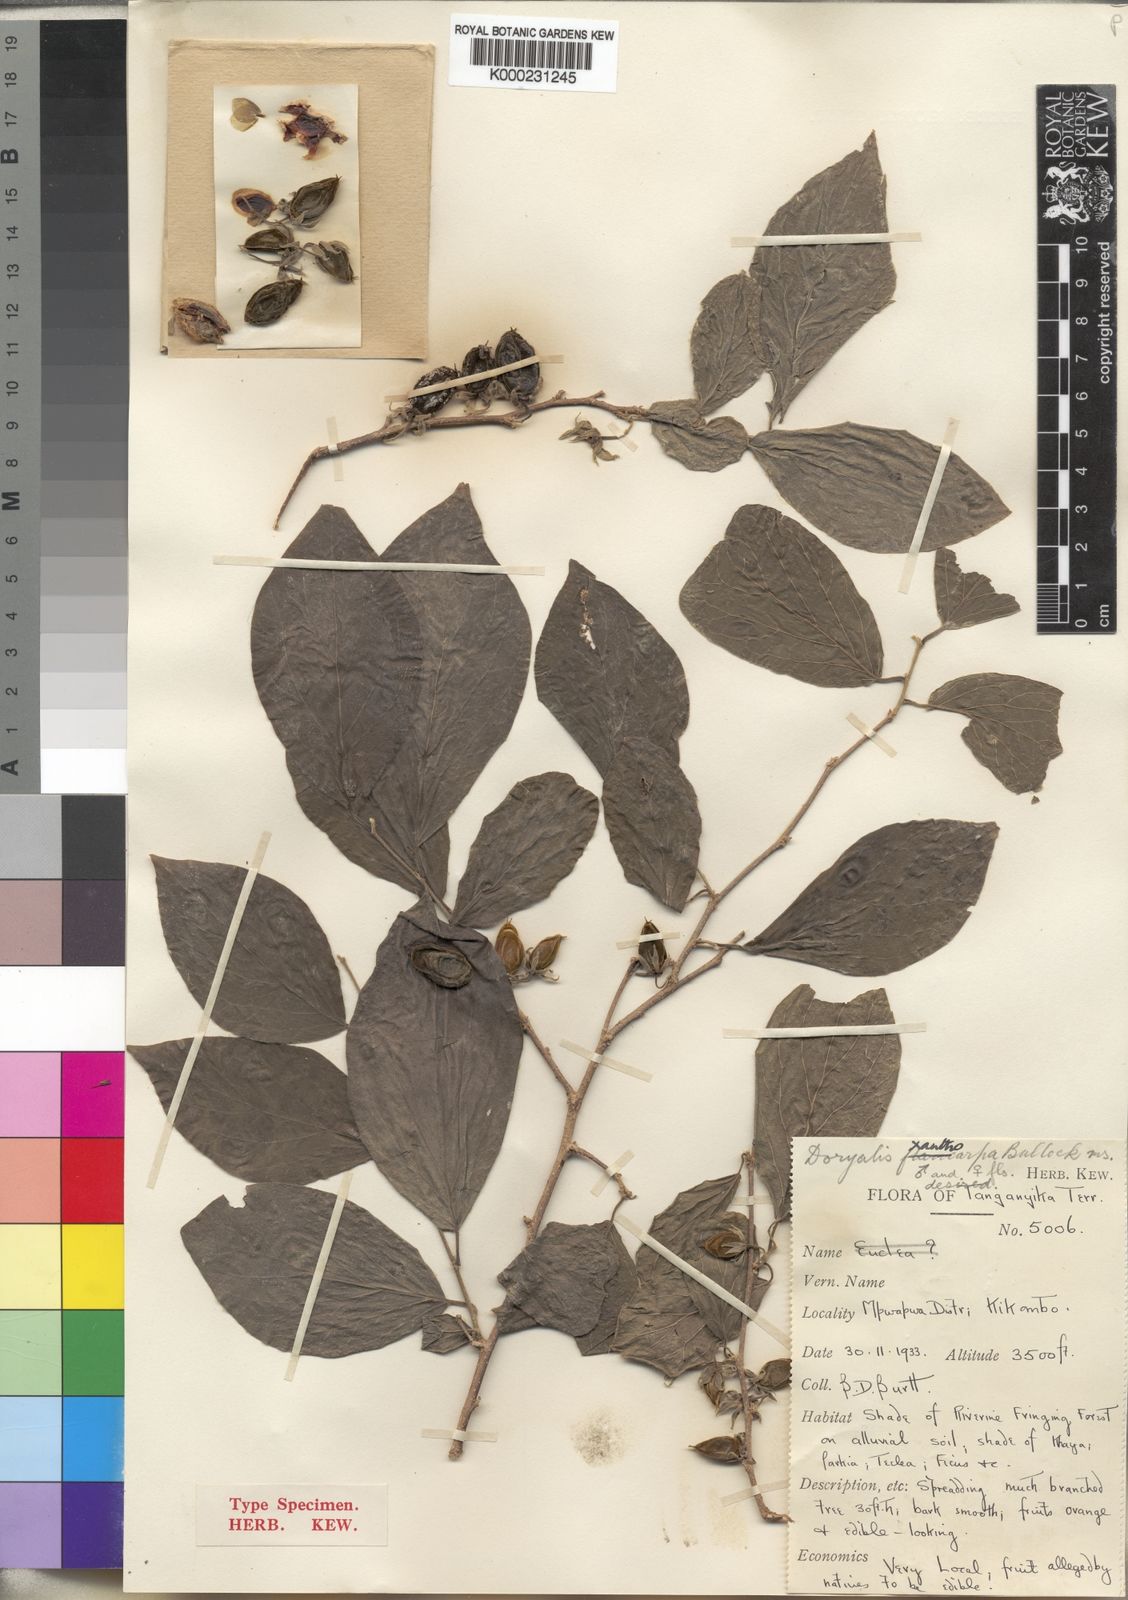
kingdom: Plantae
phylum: Tracheophyta
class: Magnoliopsida
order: Malpighiales
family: Salicaceae
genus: Dovyalis
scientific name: Dovyalis xanthocarpa
